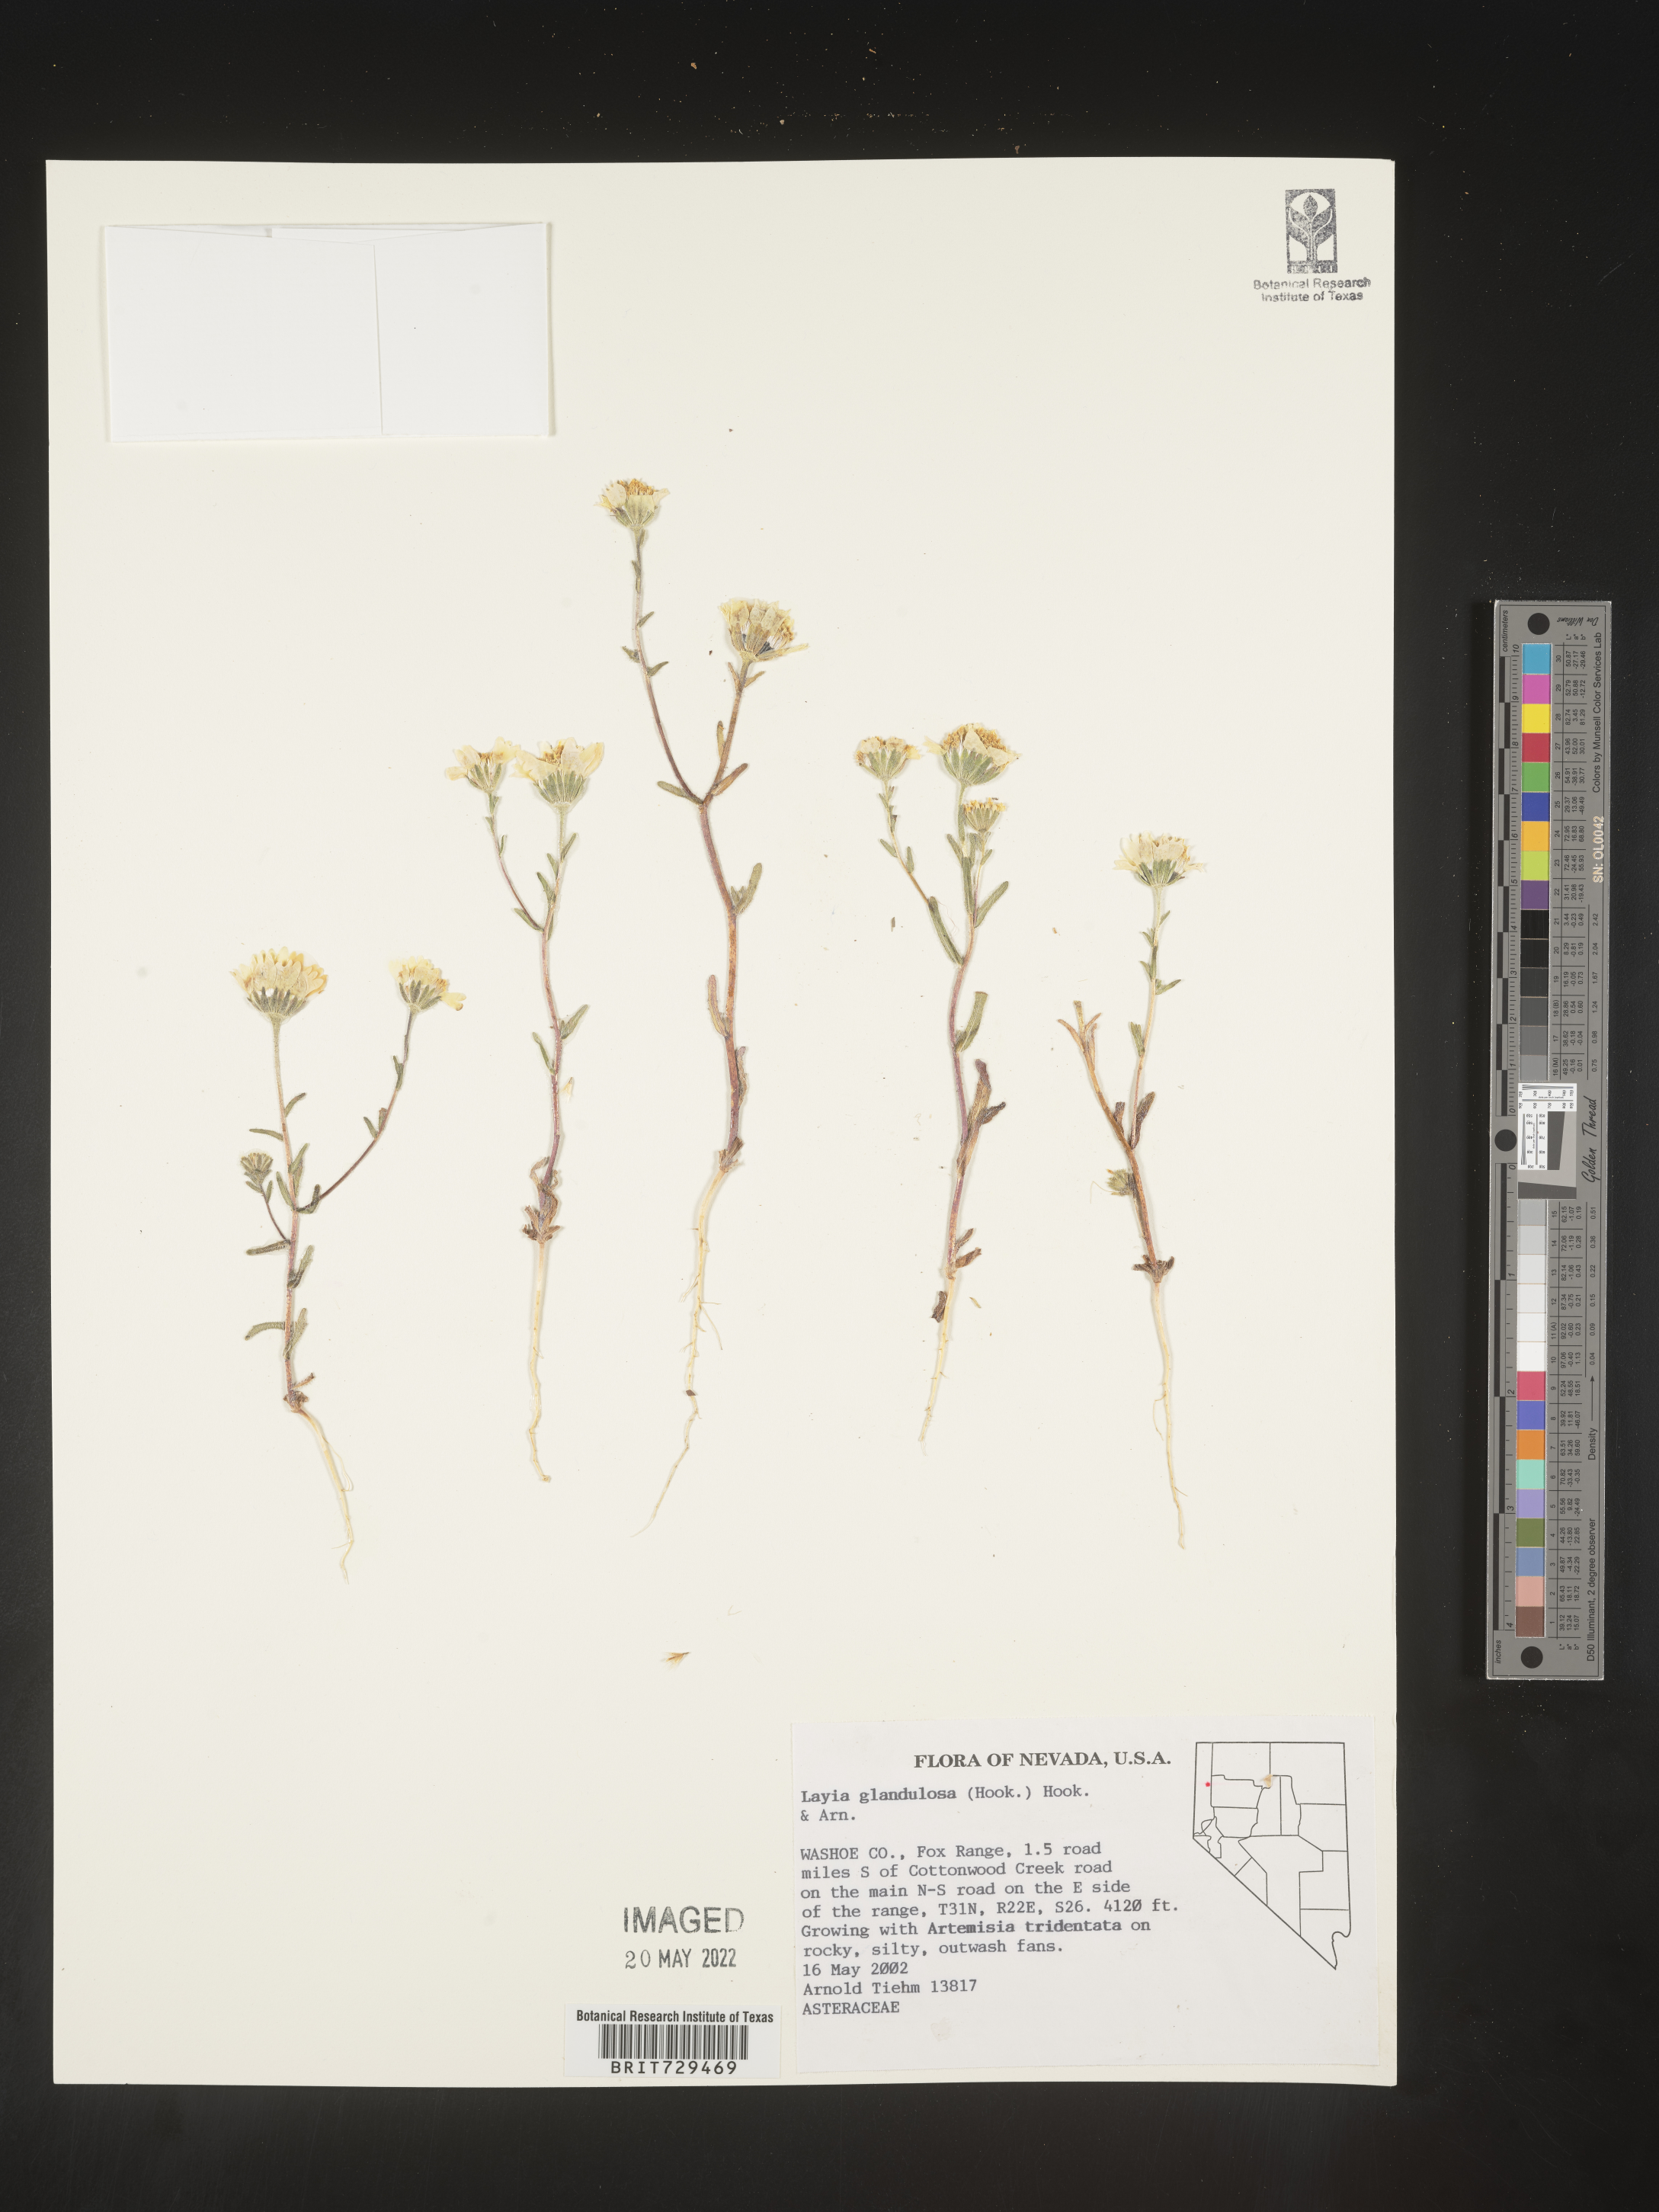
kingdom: Plantae
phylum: Tracheophyta
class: Magnoliopsida
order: Asterales
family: Asteraceae
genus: Layia
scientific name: Layia
